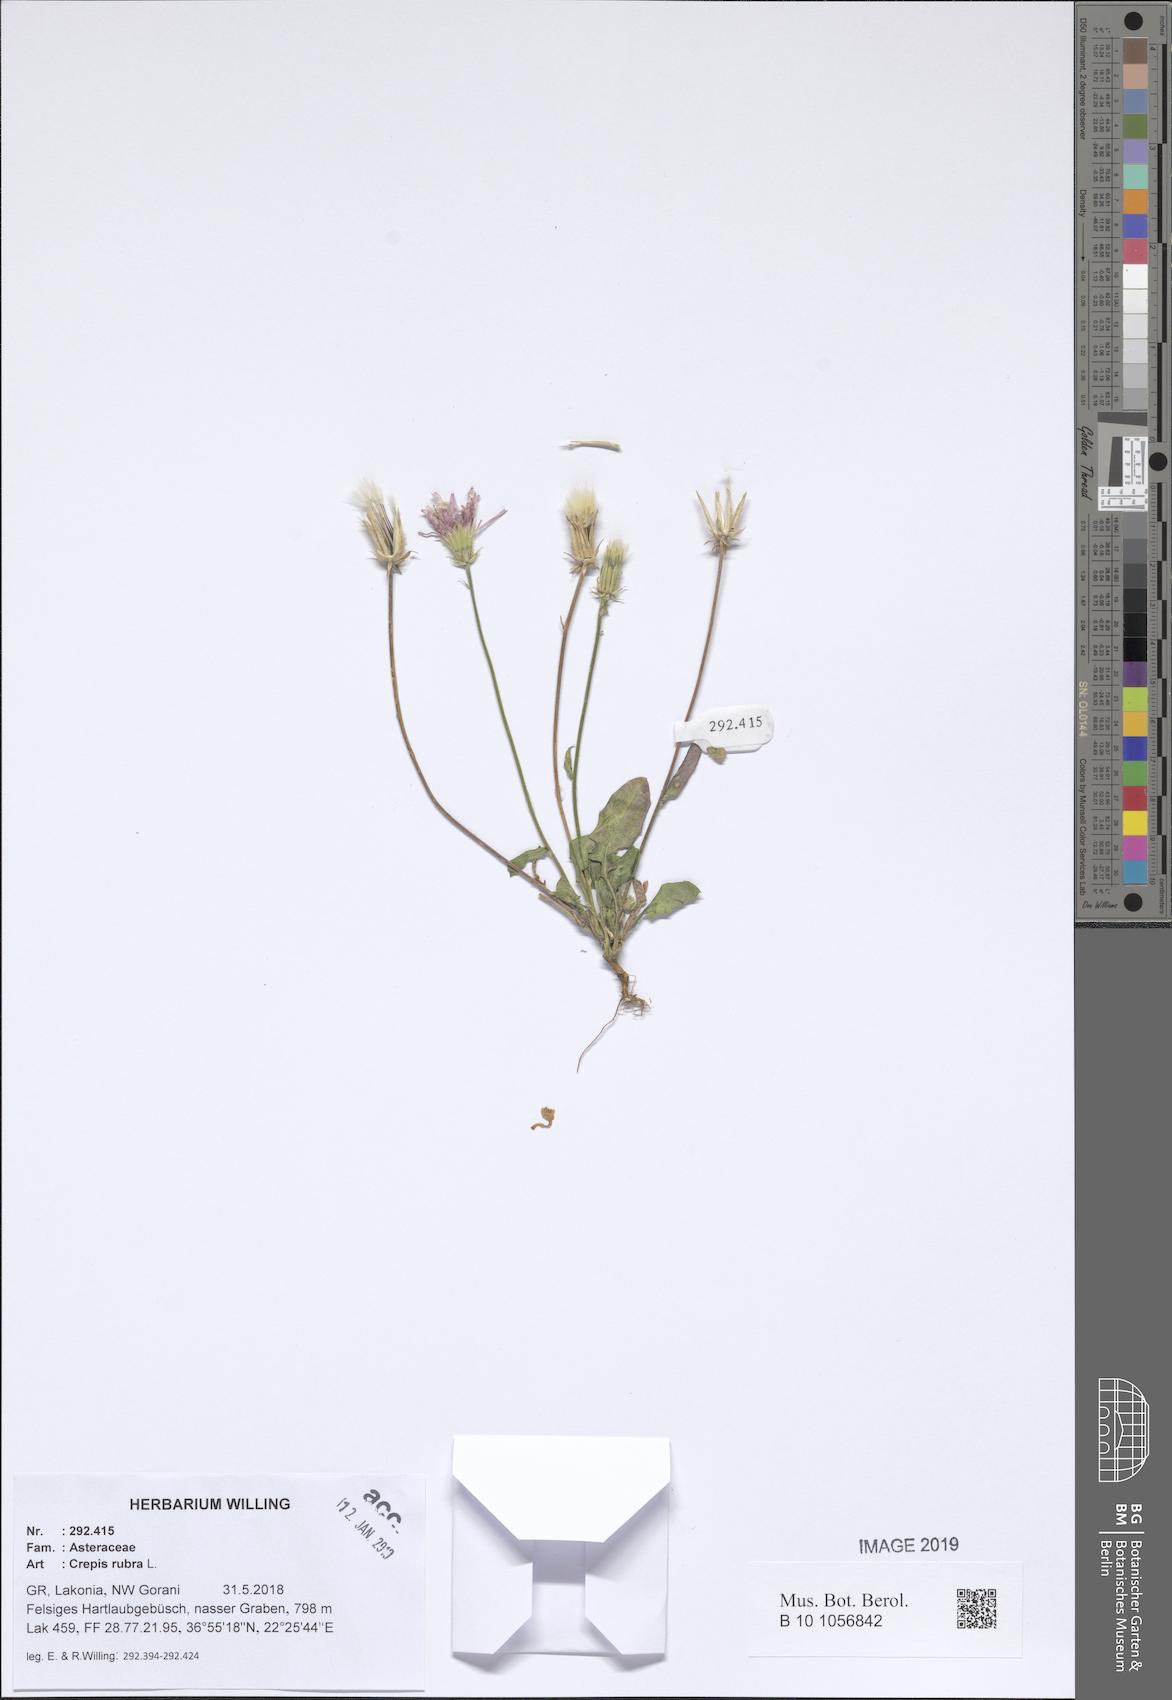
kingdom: Plantae
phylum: Tracheophyta
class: Magnoliopsida
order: Asterales
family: Asteraceae
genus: Crepis
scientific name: Crepis rubra
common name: Pink hawk's-beard
